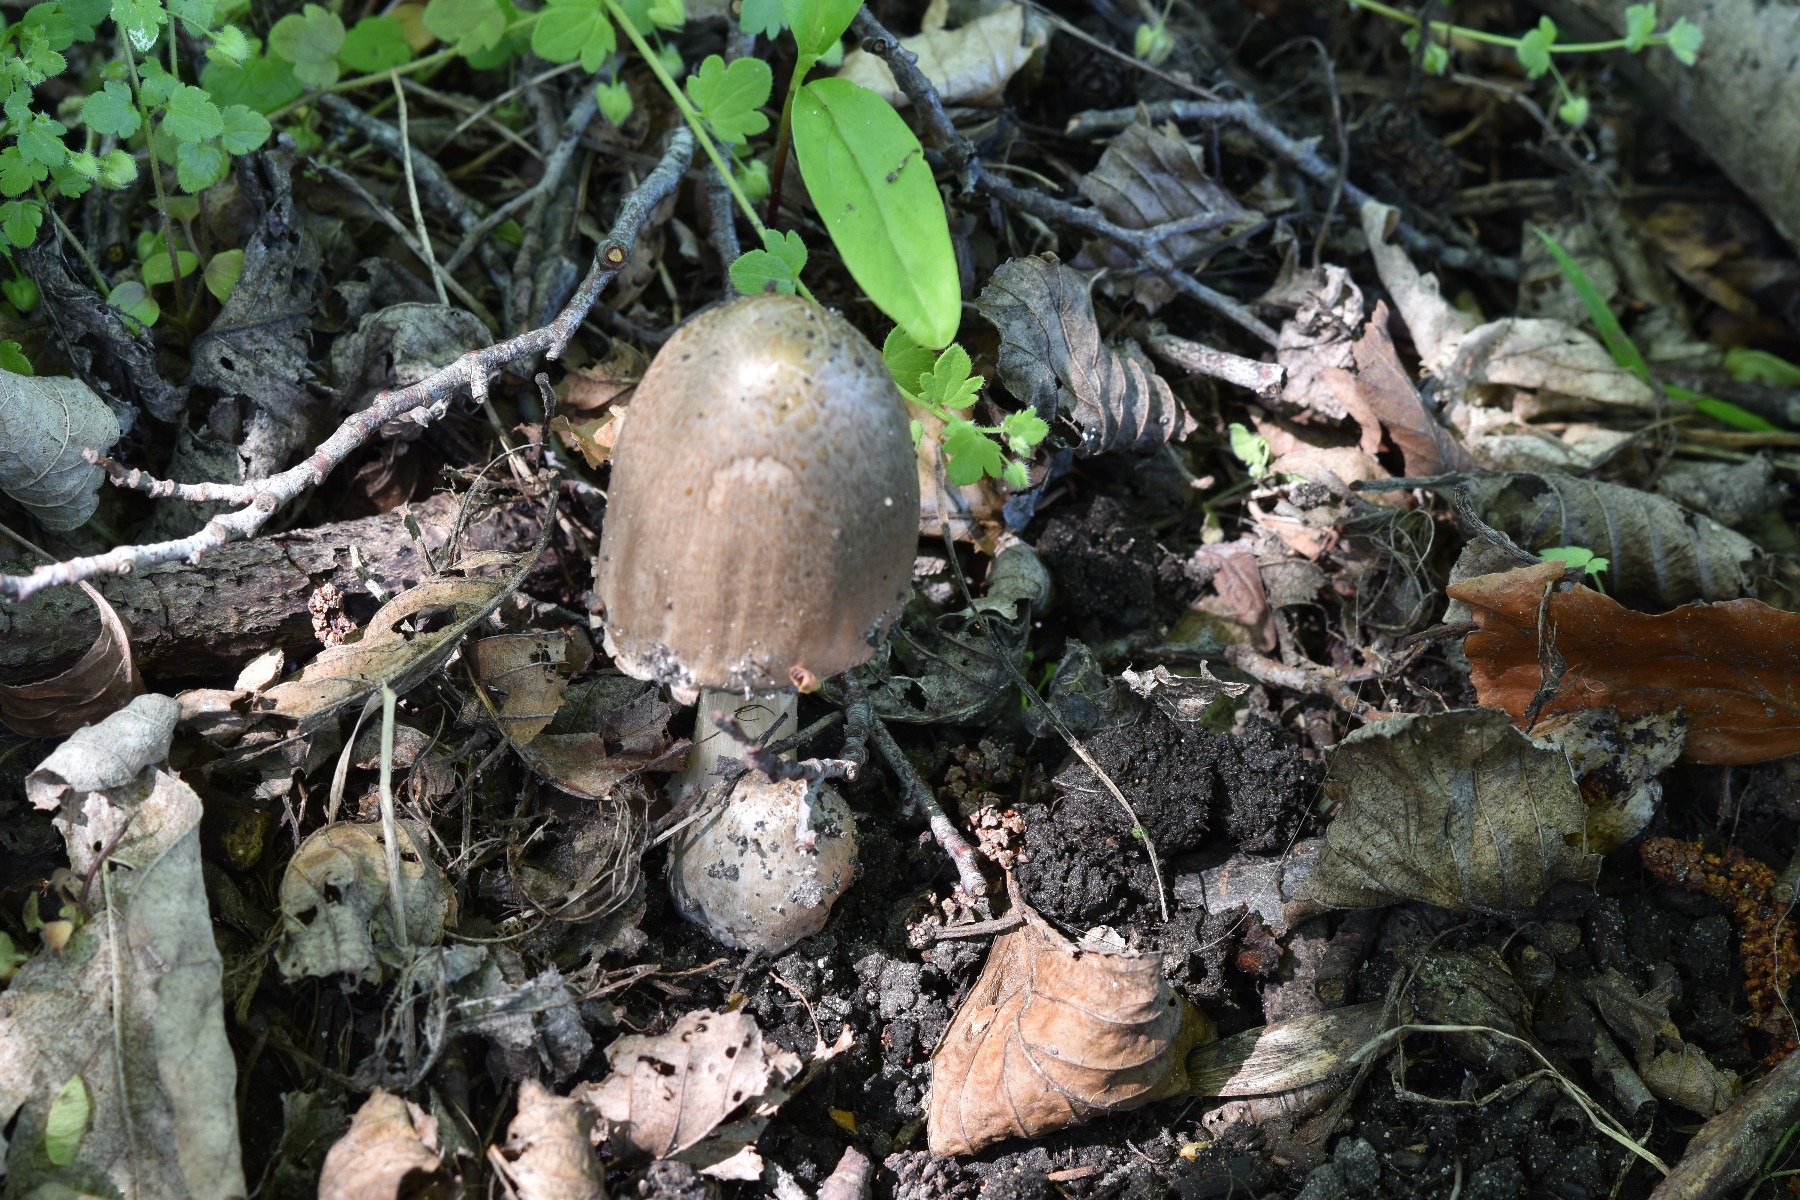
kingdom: Fungi
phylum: Basidiomycota
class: Agaricomycetes
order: Agaricales
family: Psathyrellaceae
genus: Coprinopsis
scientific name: Coprinopsis atramentaria
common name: almindelig blækhat
